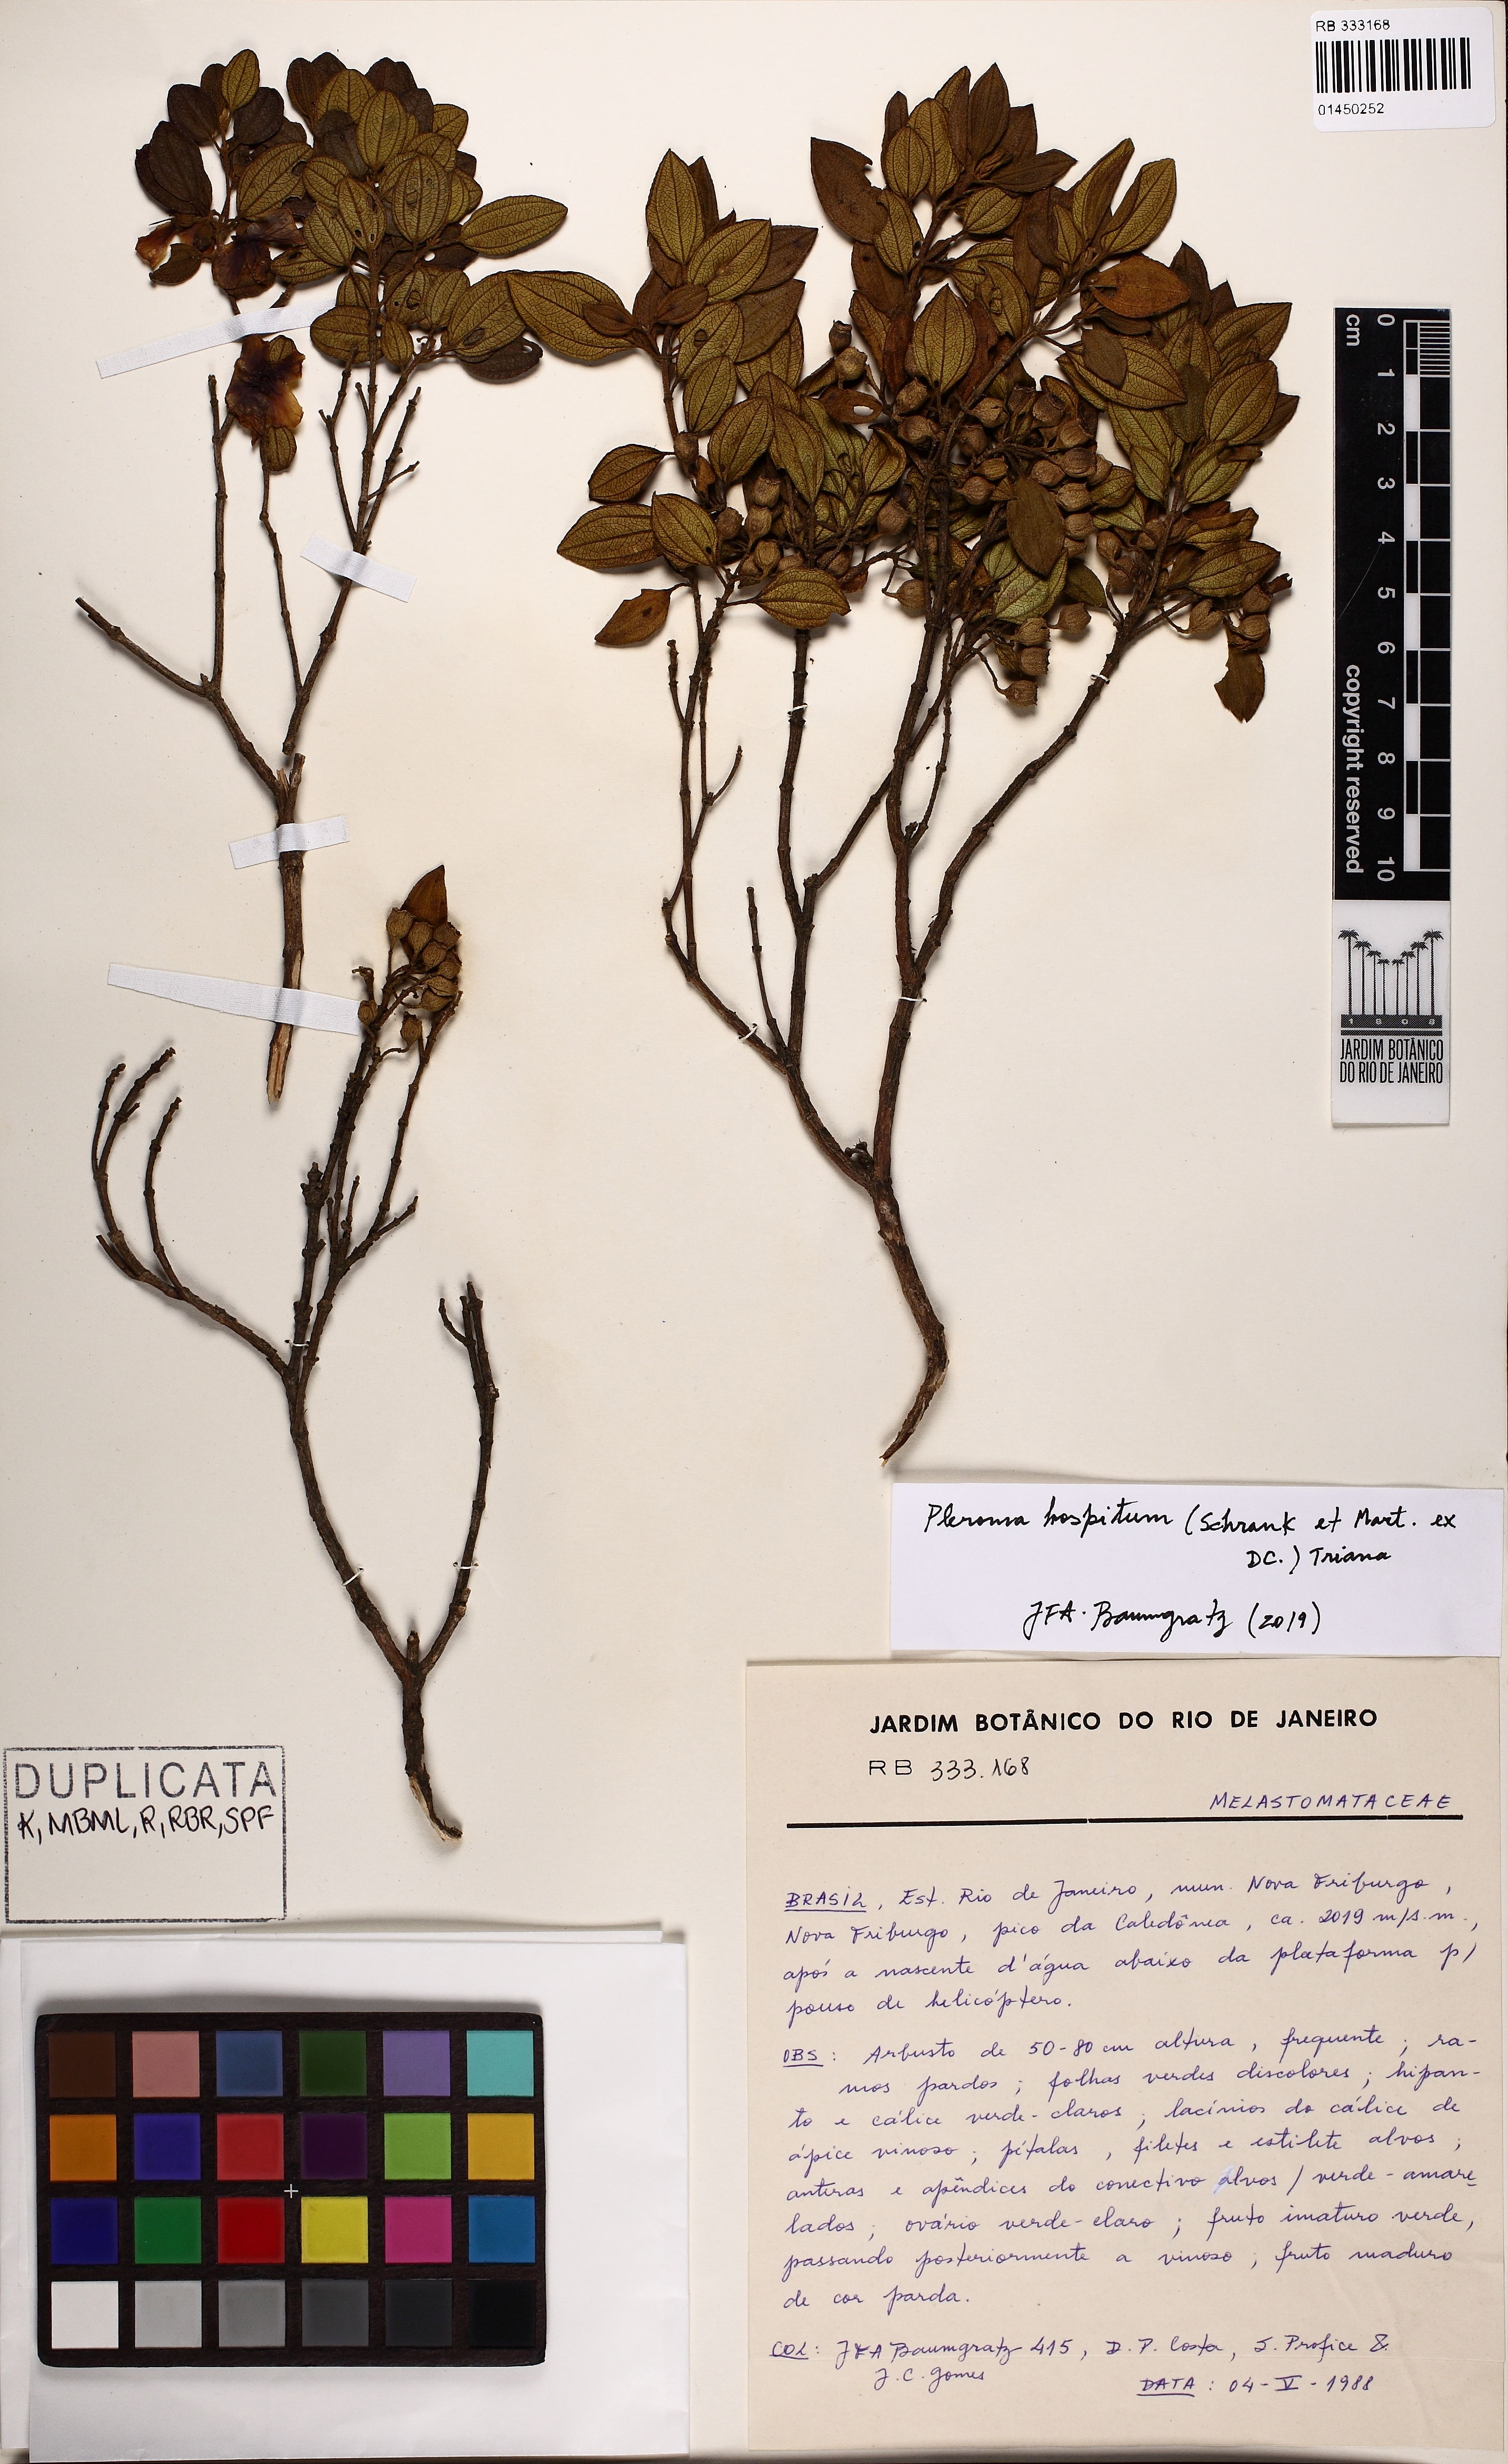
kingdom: Plantae
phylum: Tracheophyta
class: Magnoliopsida
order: Myrtales
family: Melastomataceae
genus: Pleroma
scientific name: Pleroma hospitum
